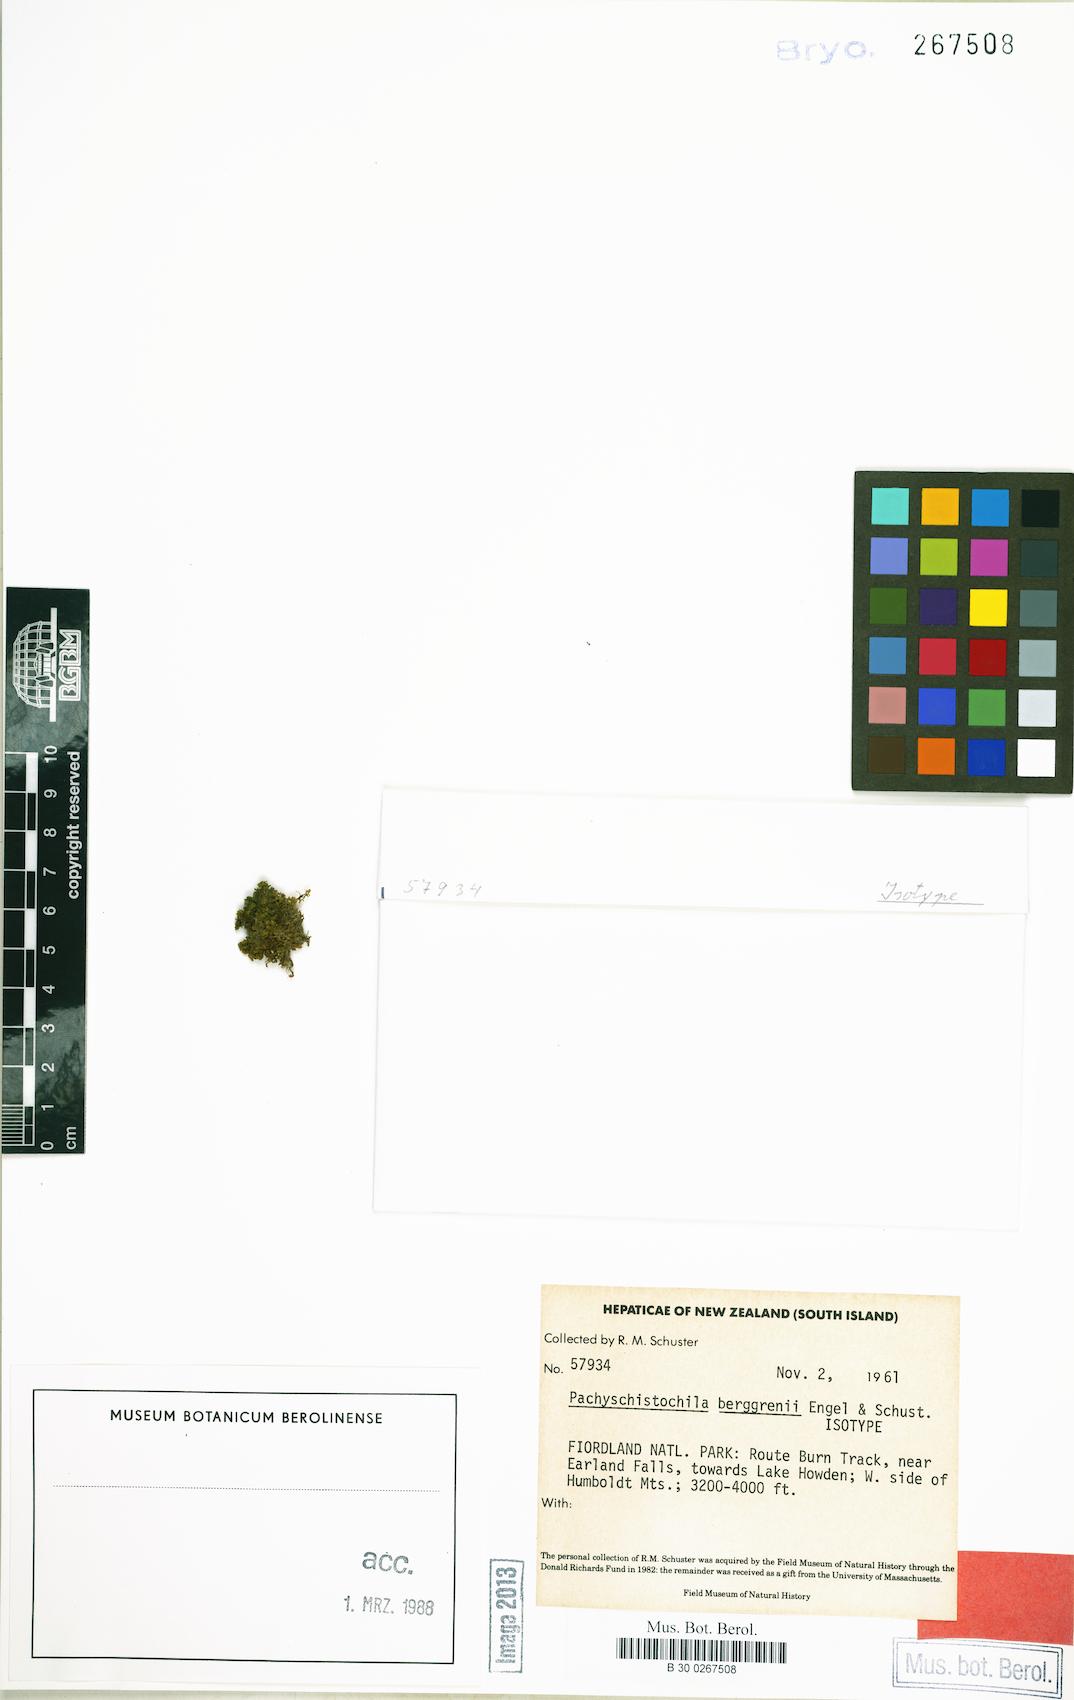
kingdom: Plantae
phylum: Marchantiophyta
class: Jungermanniopsida
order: Jungermanniales
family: Schistochilaceae
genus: Schistochila
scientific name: Schistochila berggrenii
